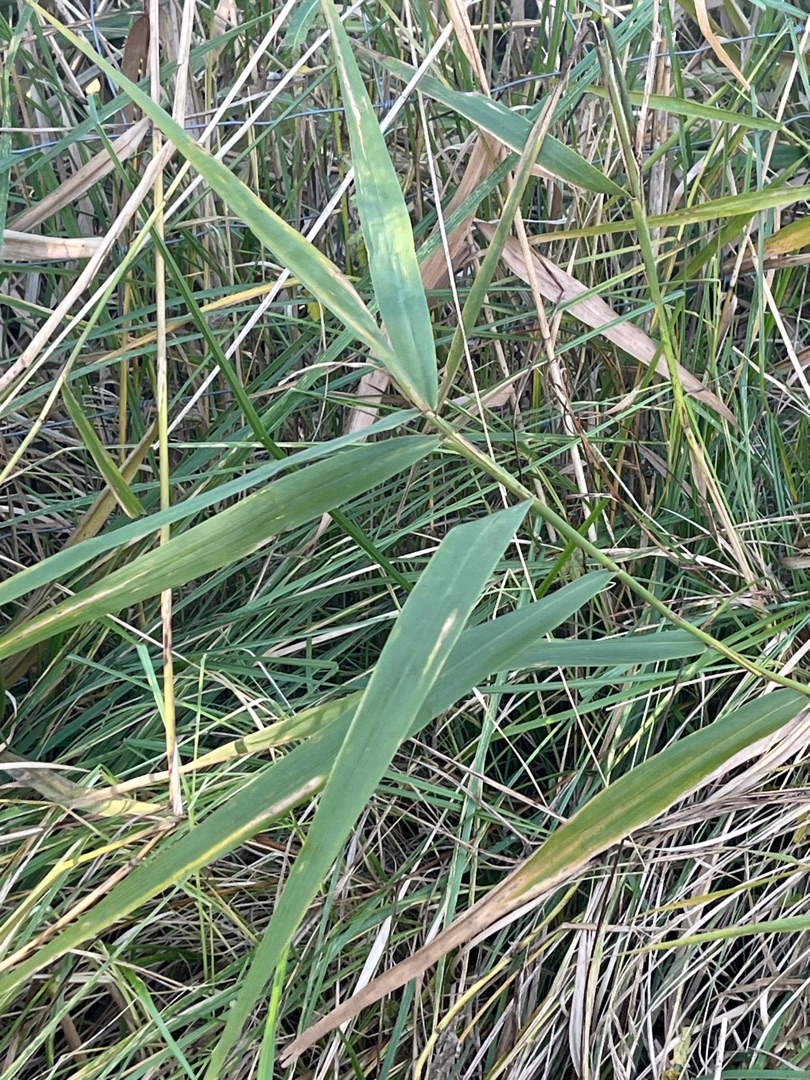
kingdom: Plantae
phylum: Tracheophyta
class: Liliopsida
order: Poales
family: Poaceae
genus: Phragmites
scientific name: Phragmites australis
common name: Tagrør
